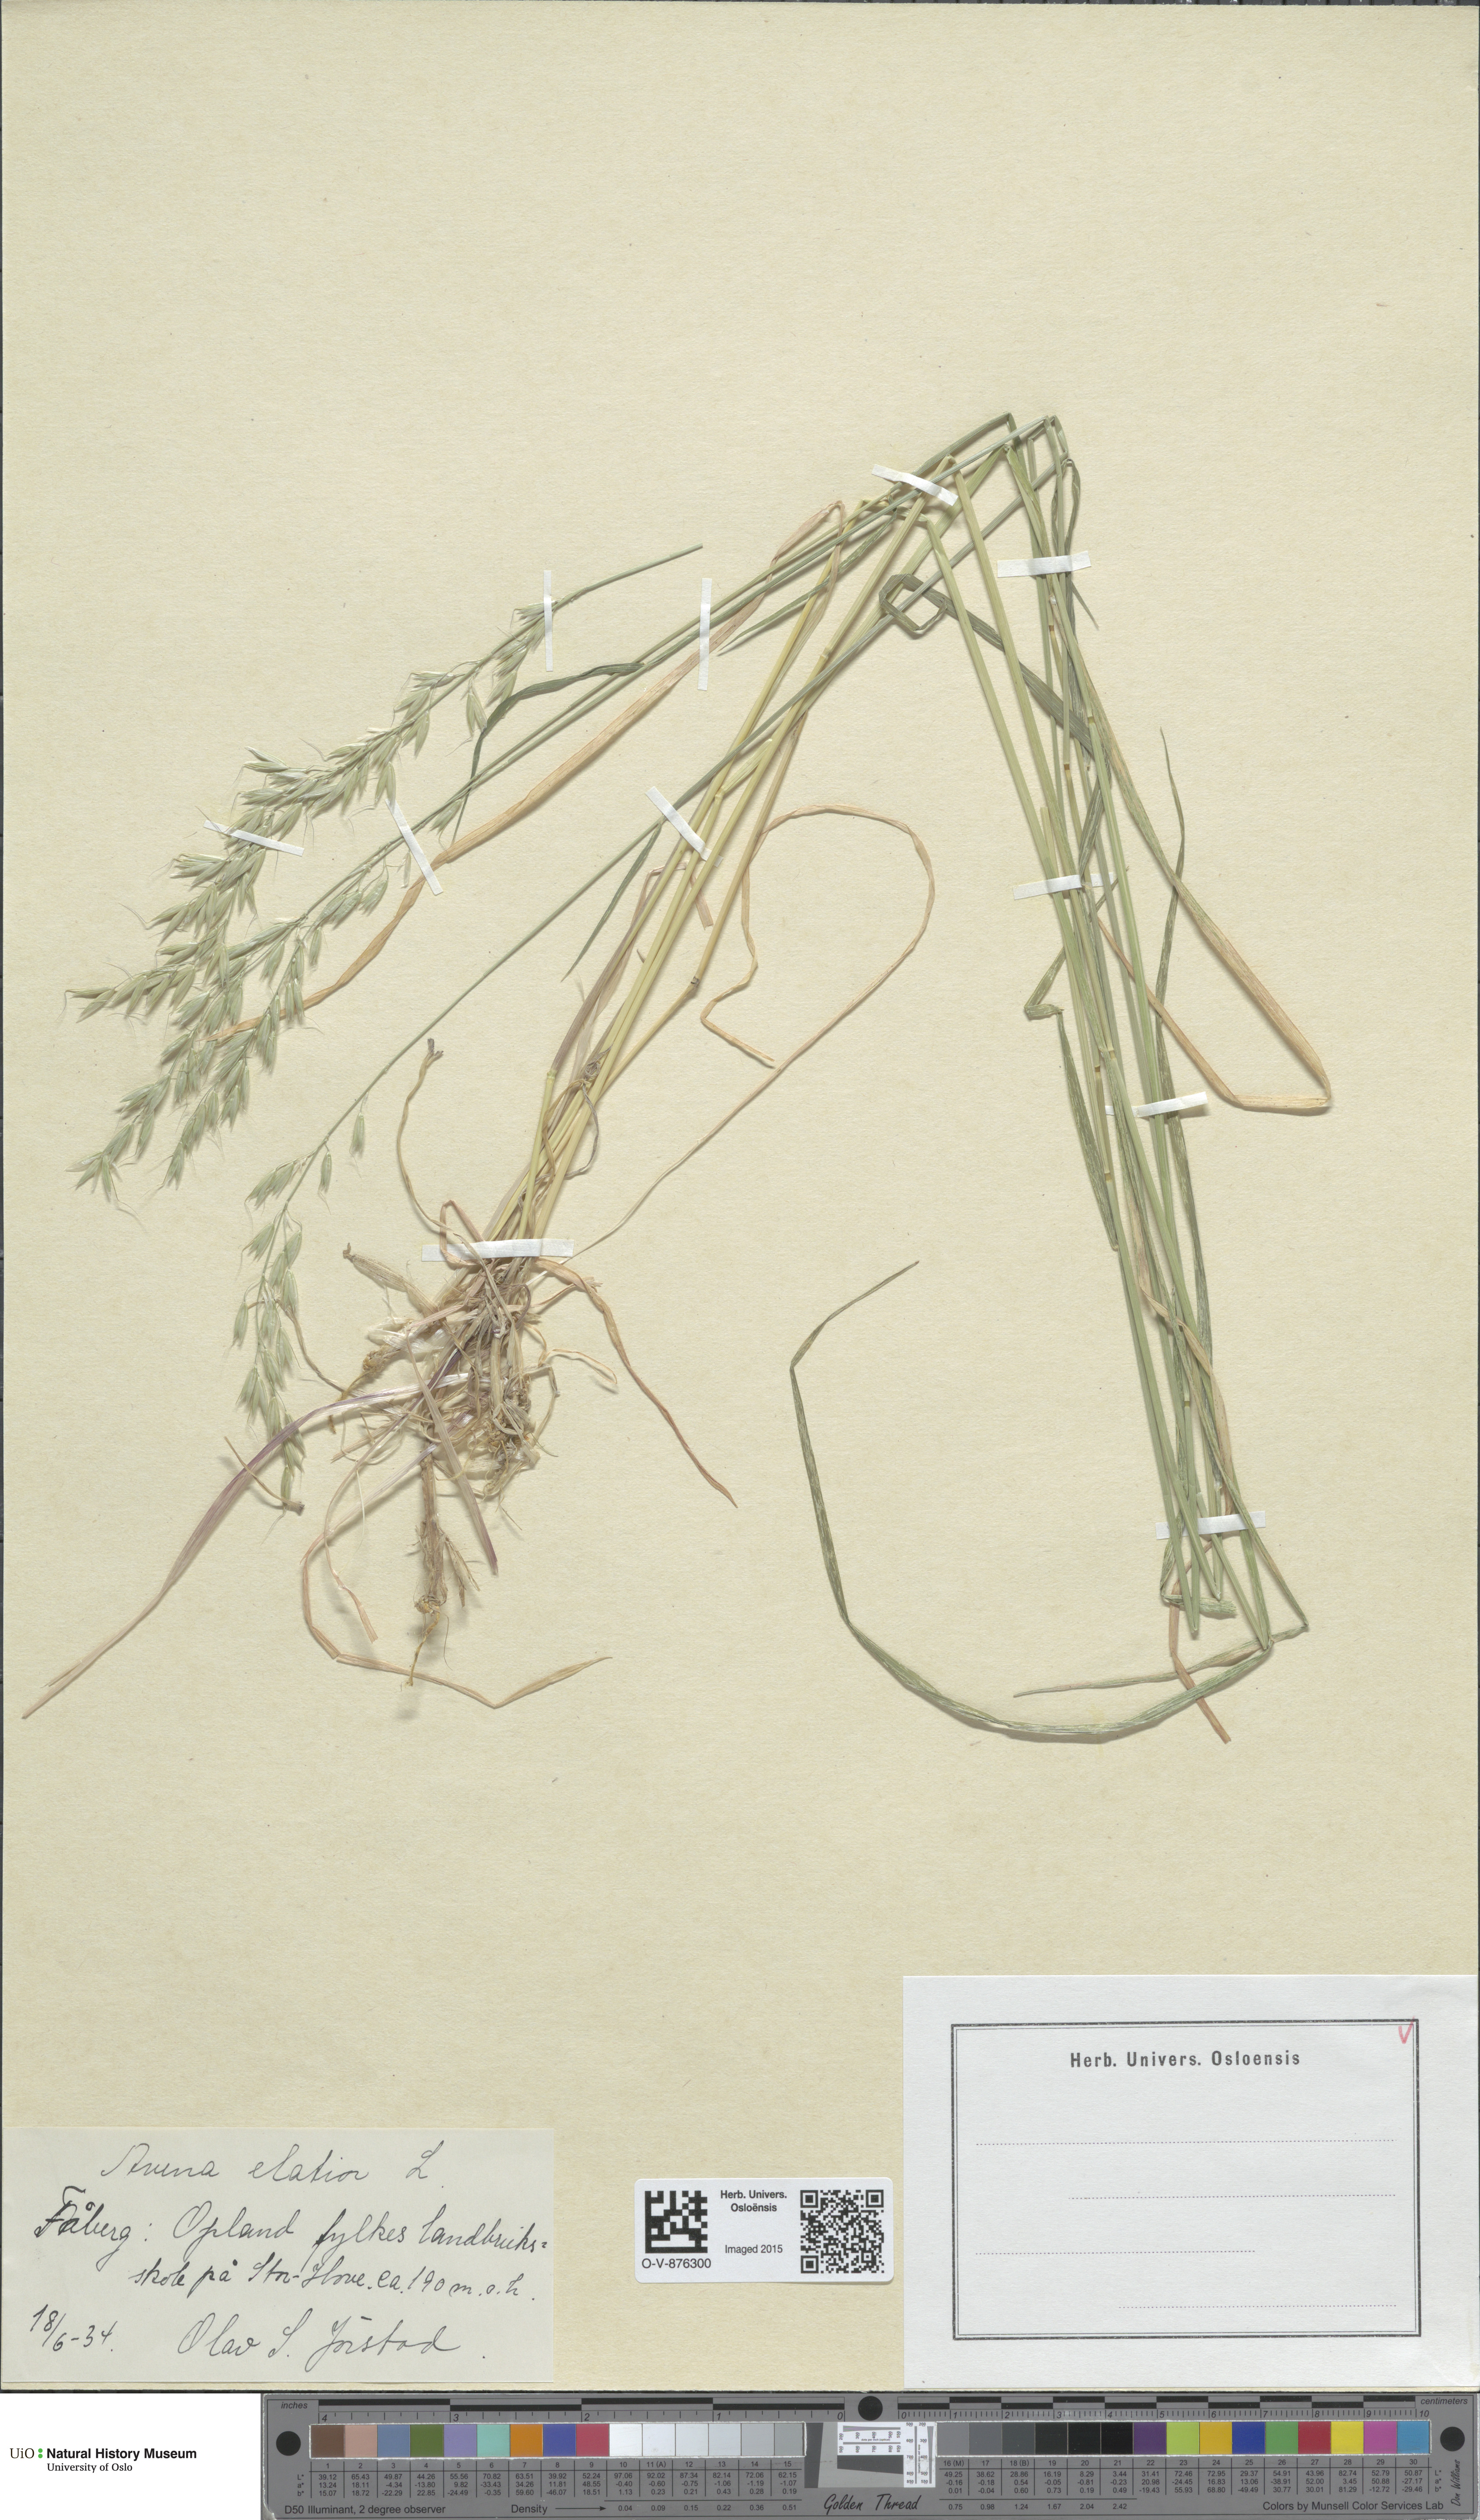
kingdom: Plantae
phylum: Tracheophyta
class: Liliopsida
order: Poales
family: Poaceae
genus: Arrhenatherum
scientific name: Arrhenatherum elatius
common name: Tall oatgrass
